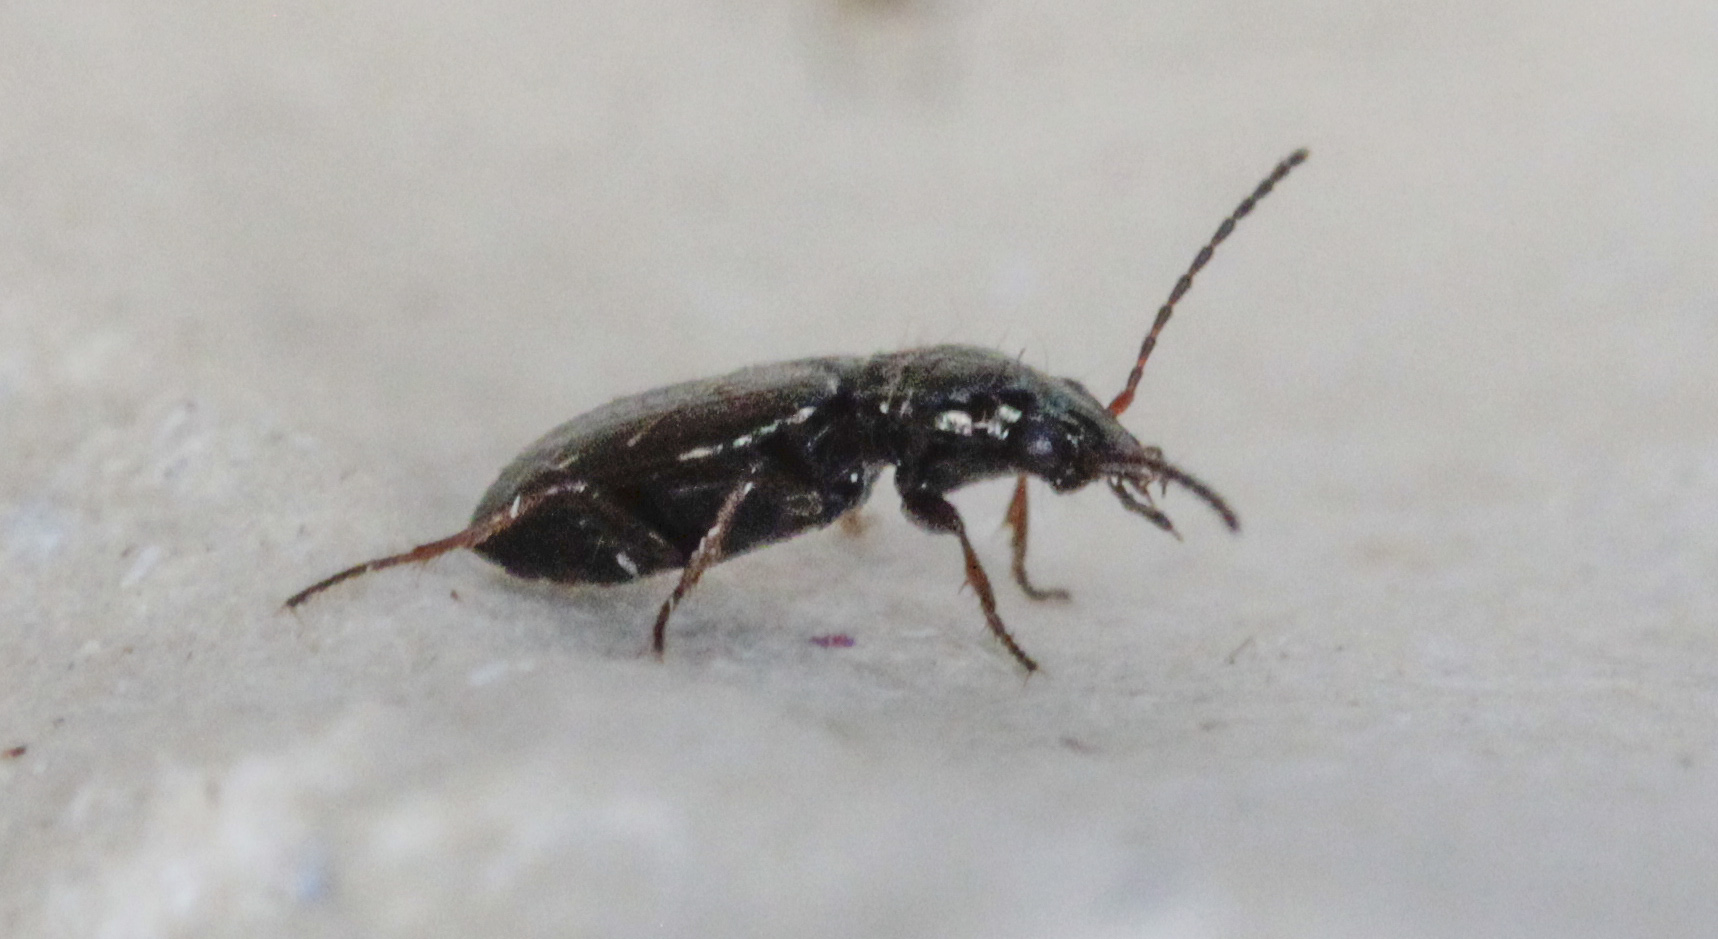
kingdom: Animalia
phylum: Arthropoda
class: Insecta
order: Coleoptera
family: Carabidae
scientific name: Carabidae
